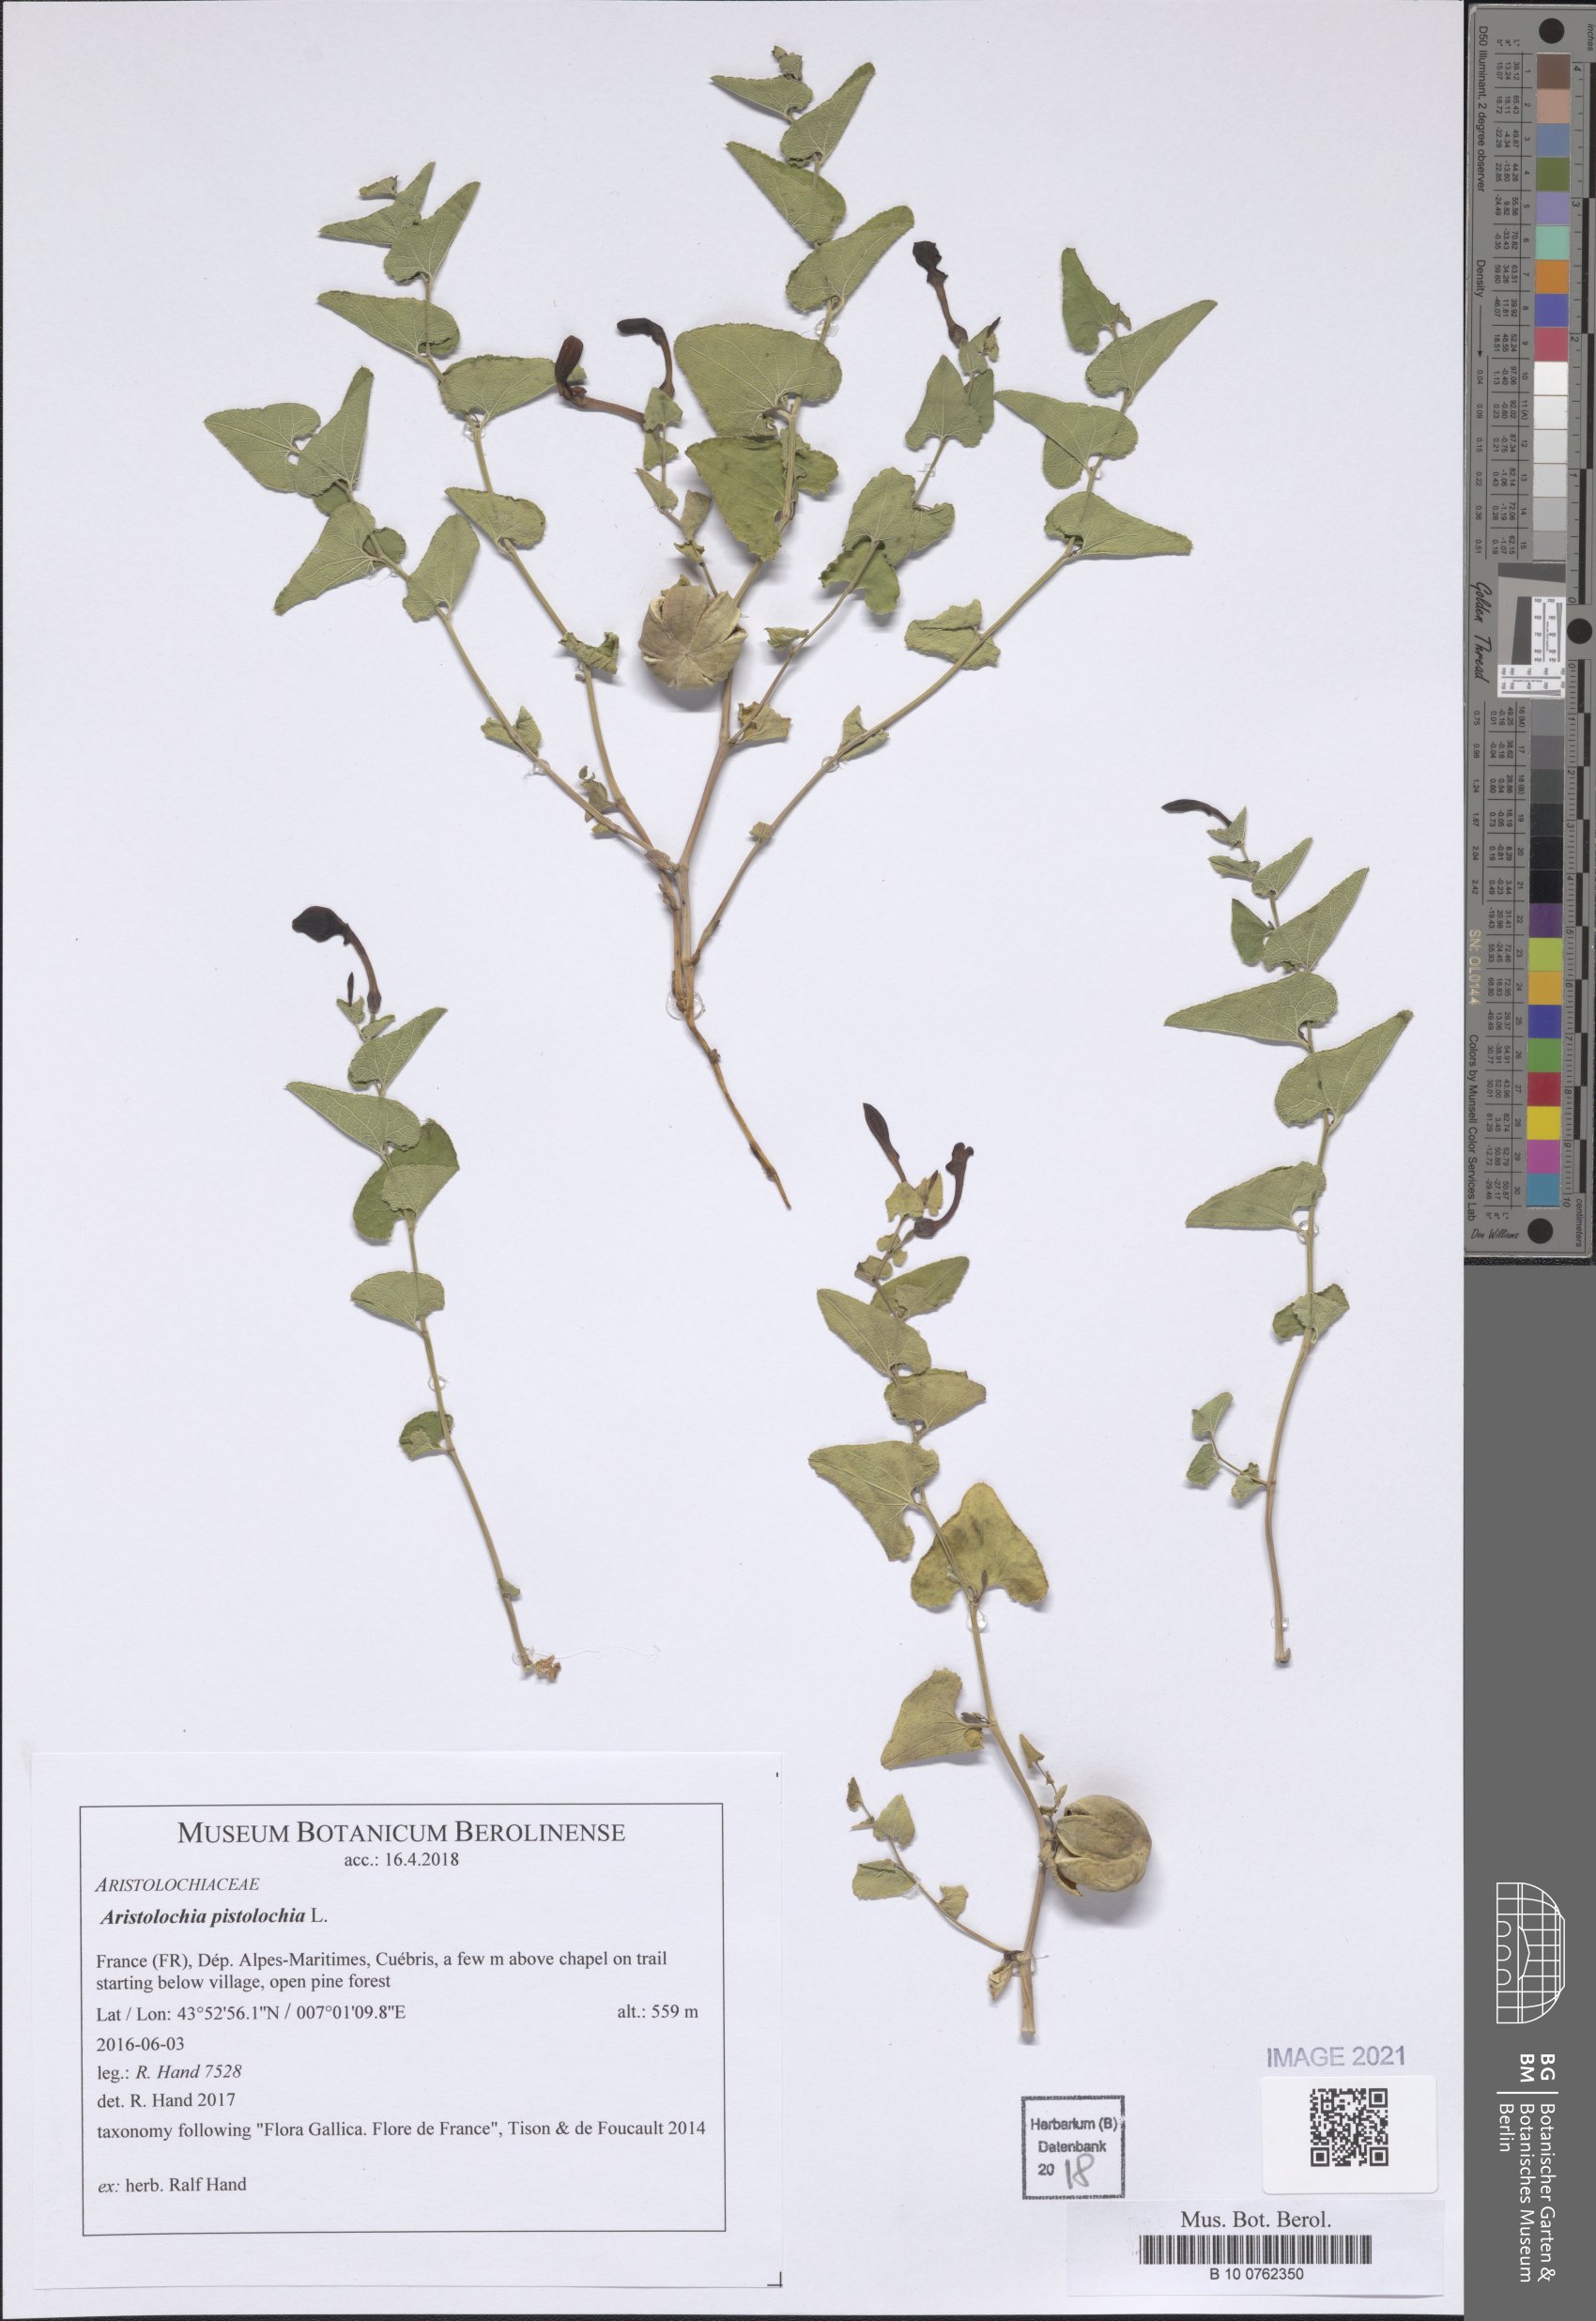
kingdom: Plantae
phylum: Tracheophyta
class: Magnoliopsida
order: Piperales
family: Aristolochiaceae
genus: Aristolochia
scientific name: Aristolochia pistolochia
